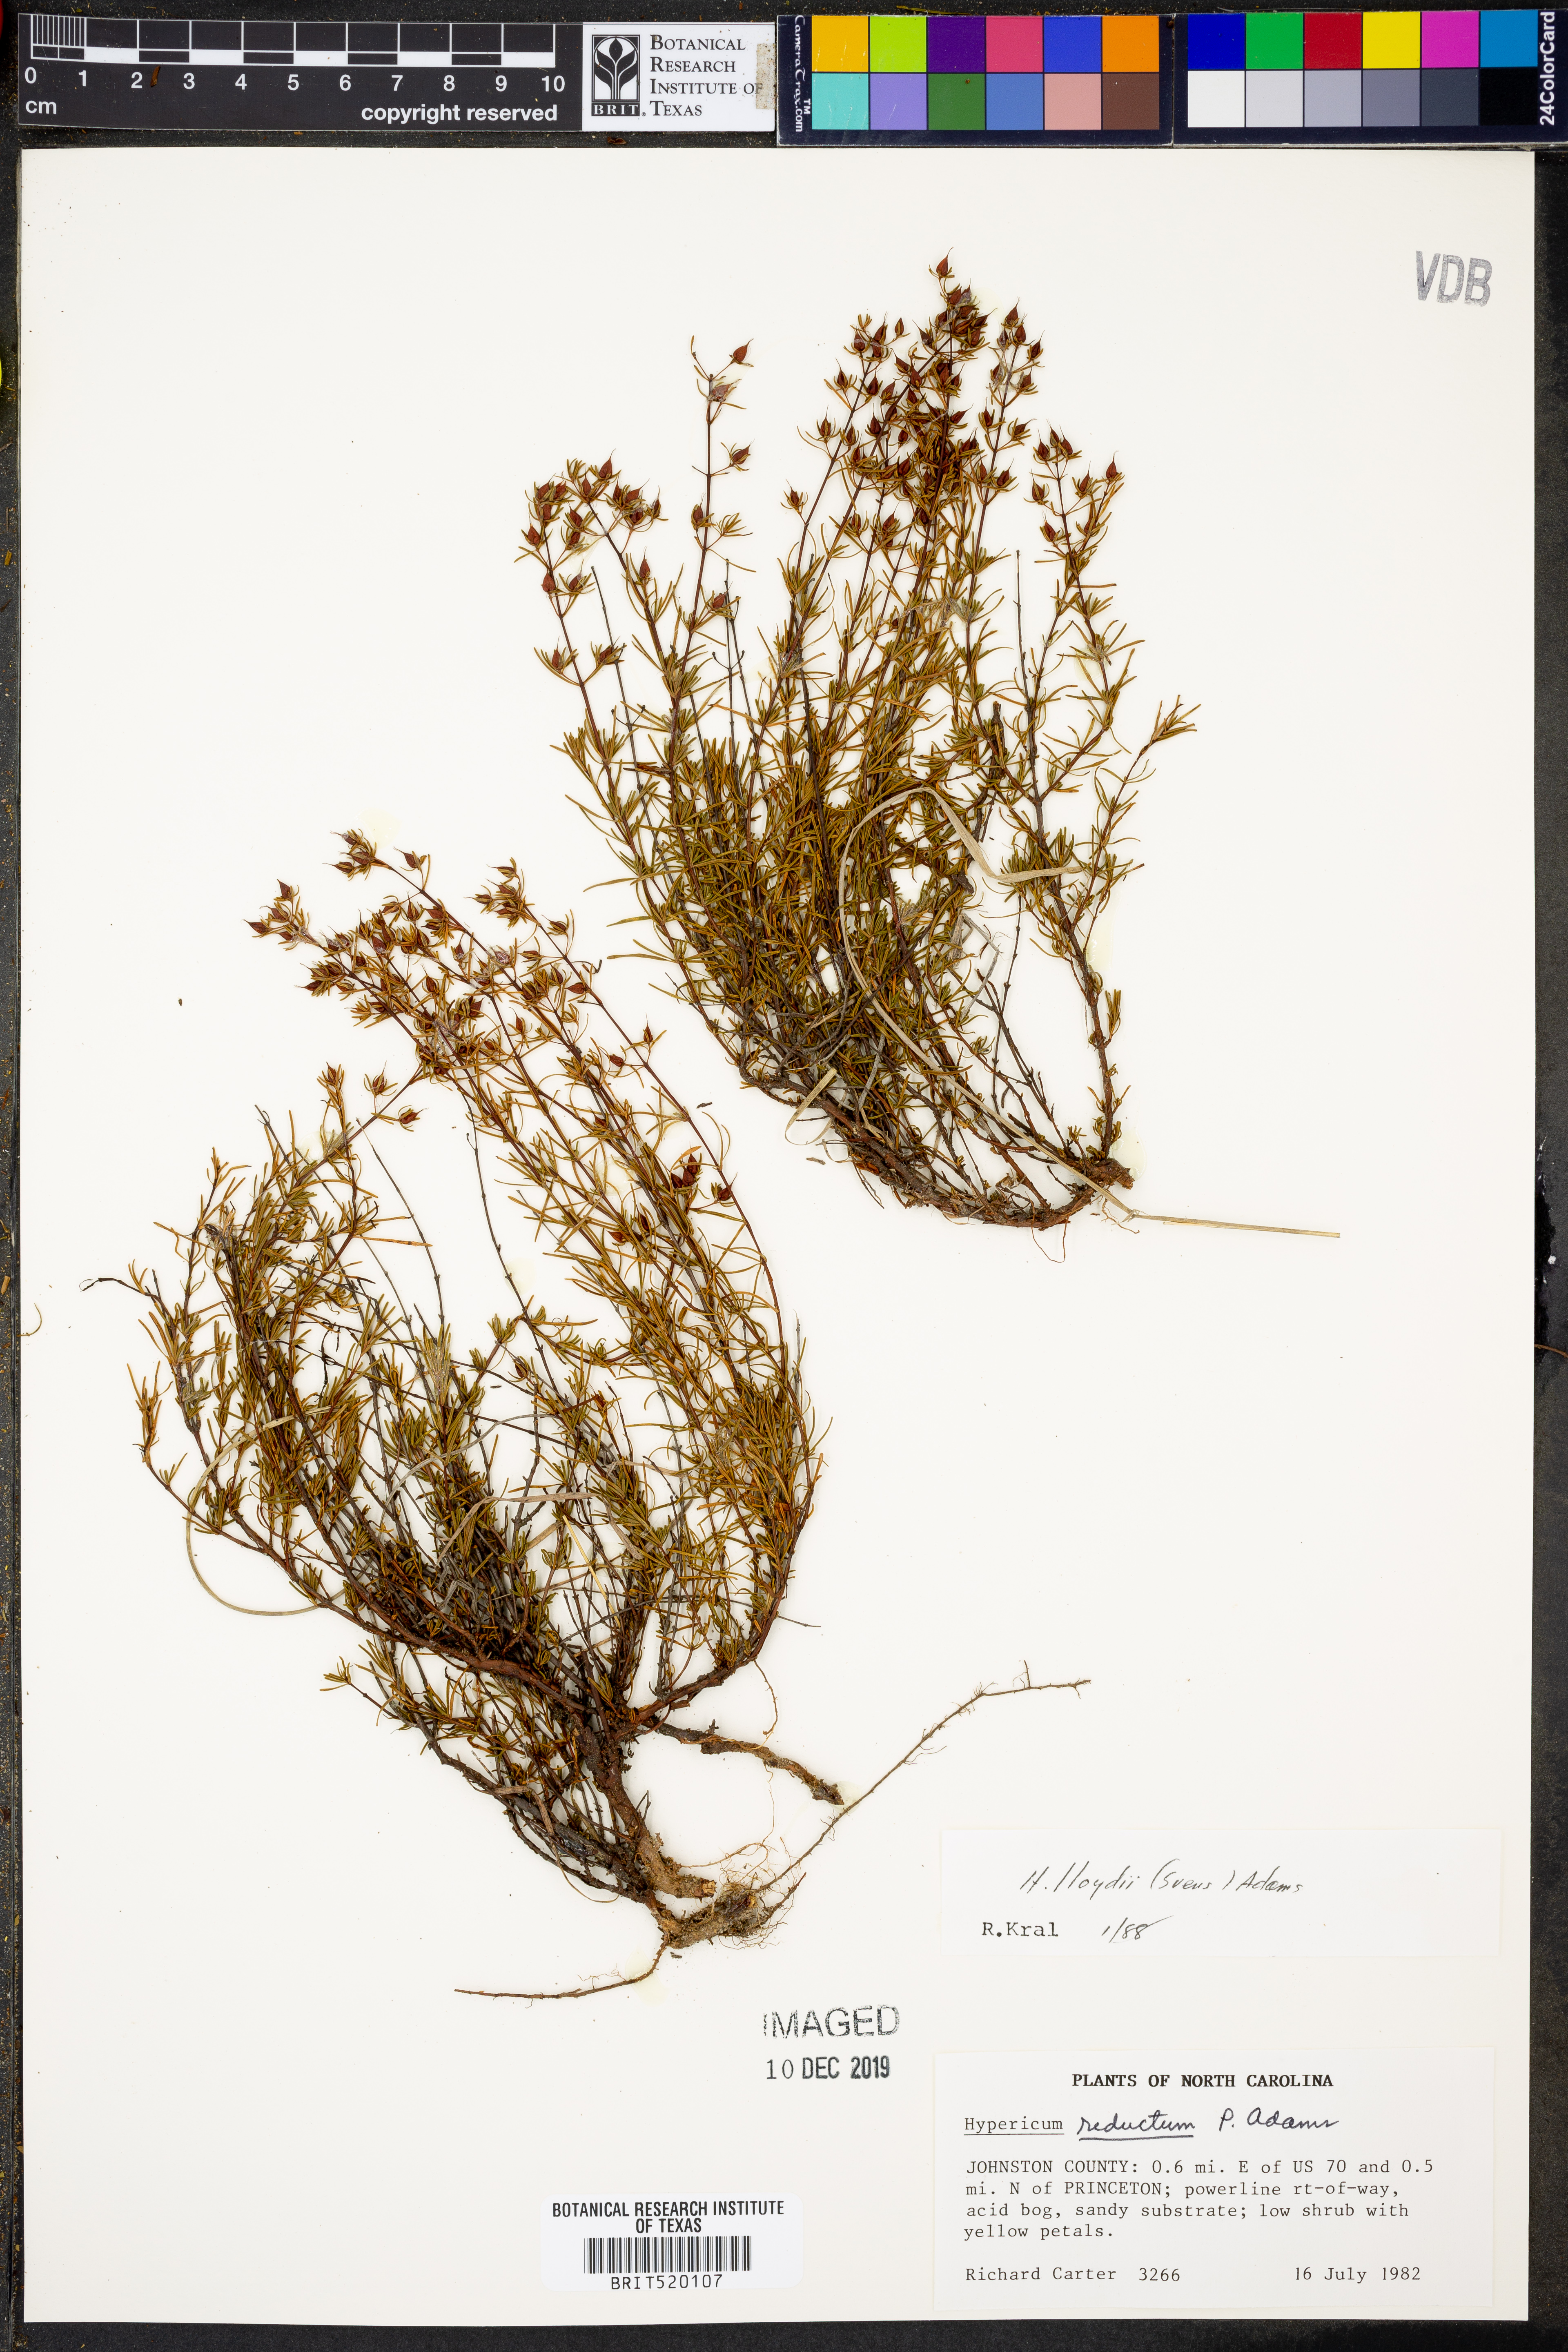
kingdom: Plantae
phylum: Tracheophyta
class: Magnoliopsida
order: Malpighiales
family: Hypericaceae
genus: Hypericum
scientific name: Hypericum lloydii
